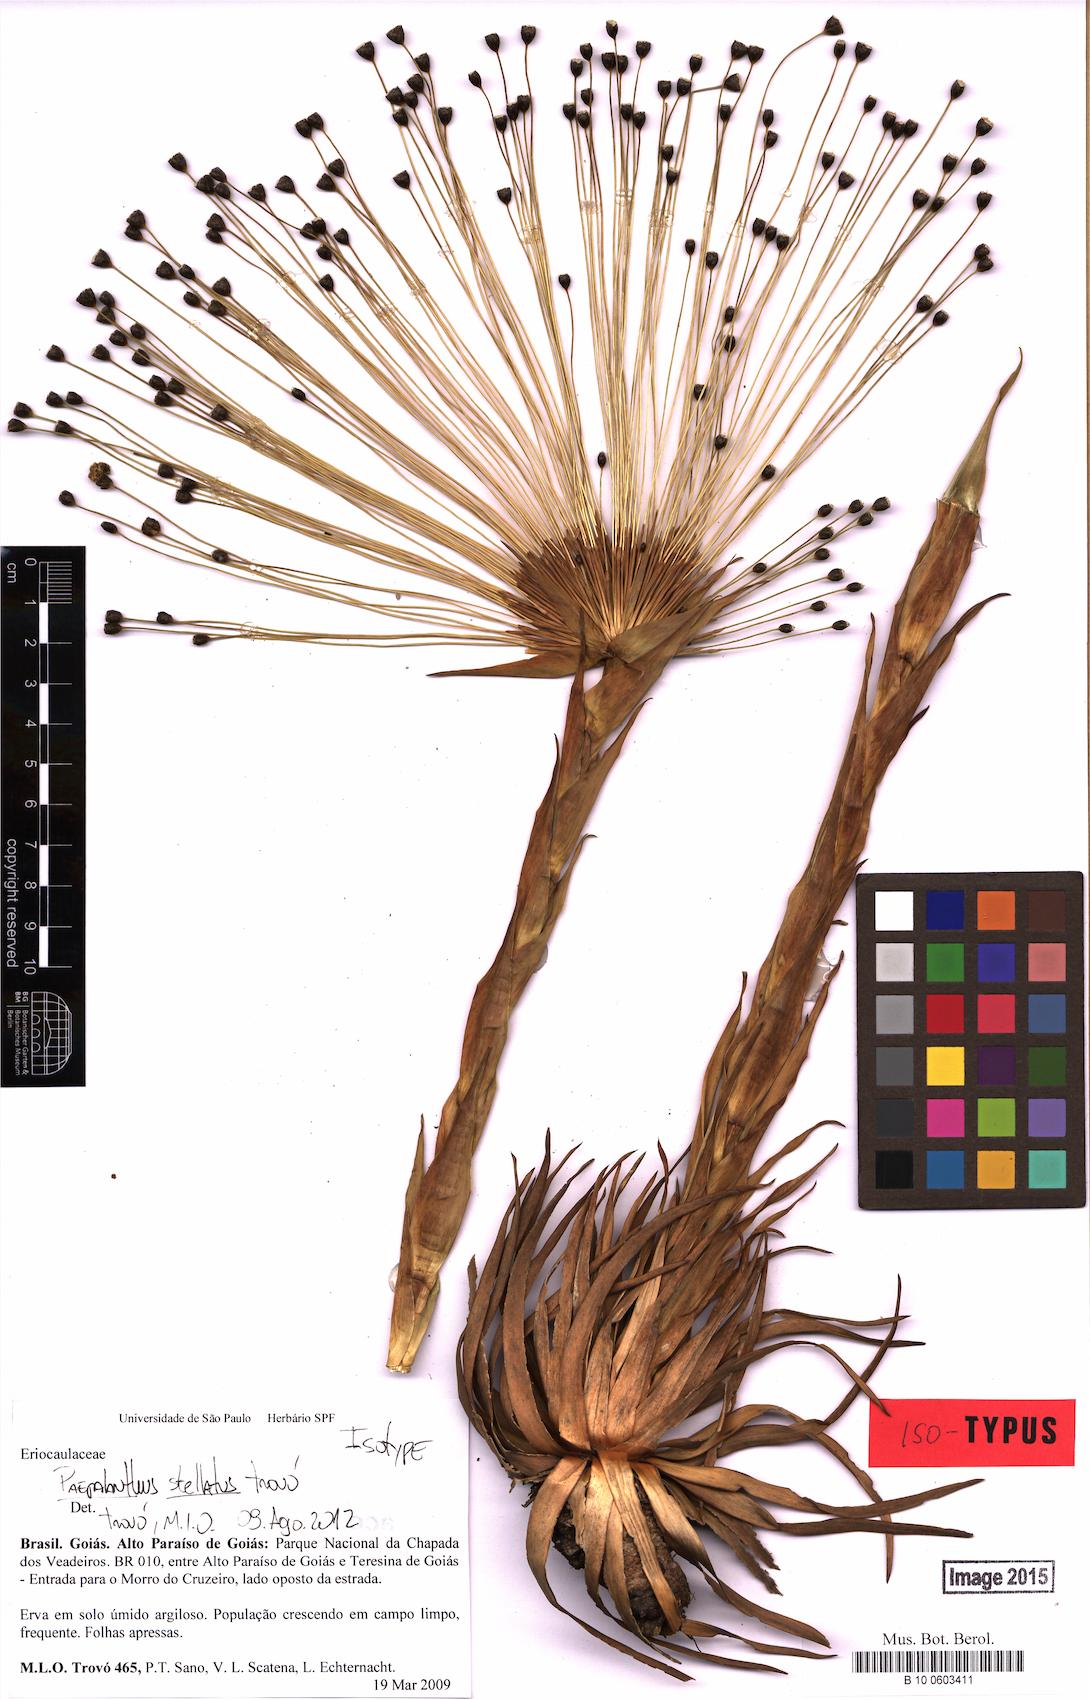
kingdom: Plantae
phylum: Tracheophyta
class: Liliopsida
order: Poales
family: Eriocaulaceae
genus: Paepalanthus
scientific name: Paepalanthus stellatus
